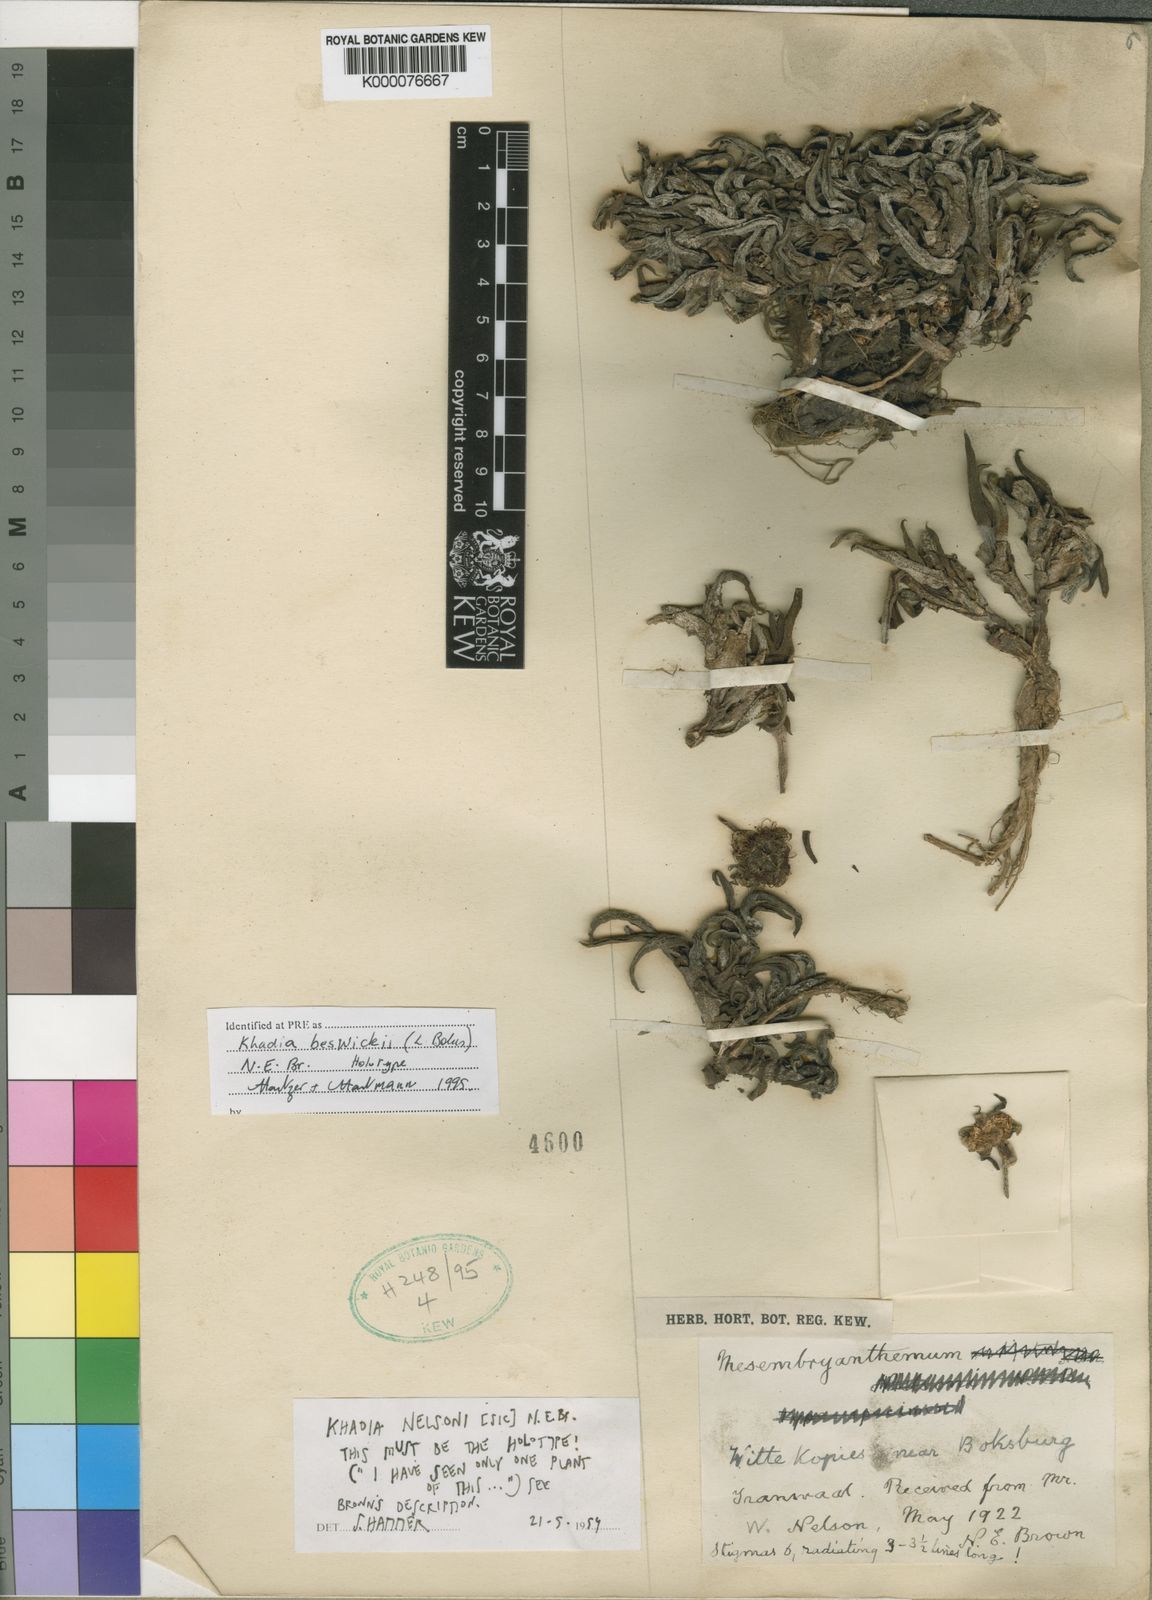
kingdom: Plantae
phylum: Tracheophyta
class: Magnoliopsida
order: Caryophyllales
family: Aizoaceae
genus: Khadia
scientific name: Khadia beswickii
